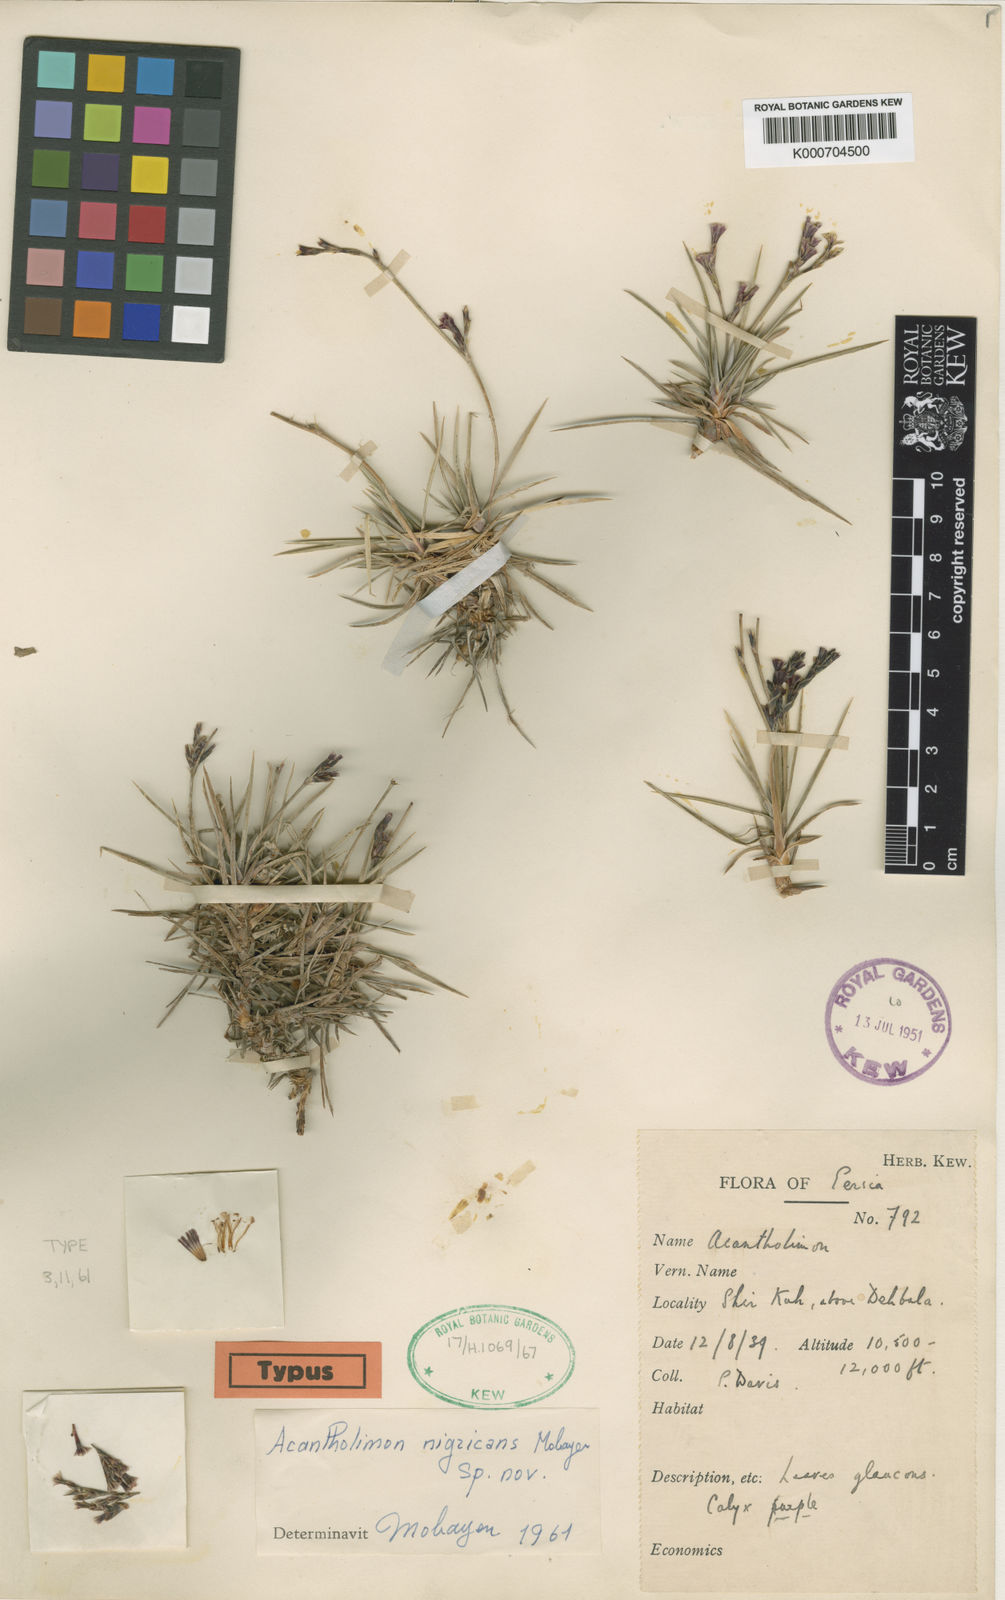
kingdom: Plantae
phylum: Tracheophyta
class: Magnoliopsida
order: Caryophyllales
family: Plumbaginaceae
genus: Acantholimon
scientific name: Acantholimon nigricans
